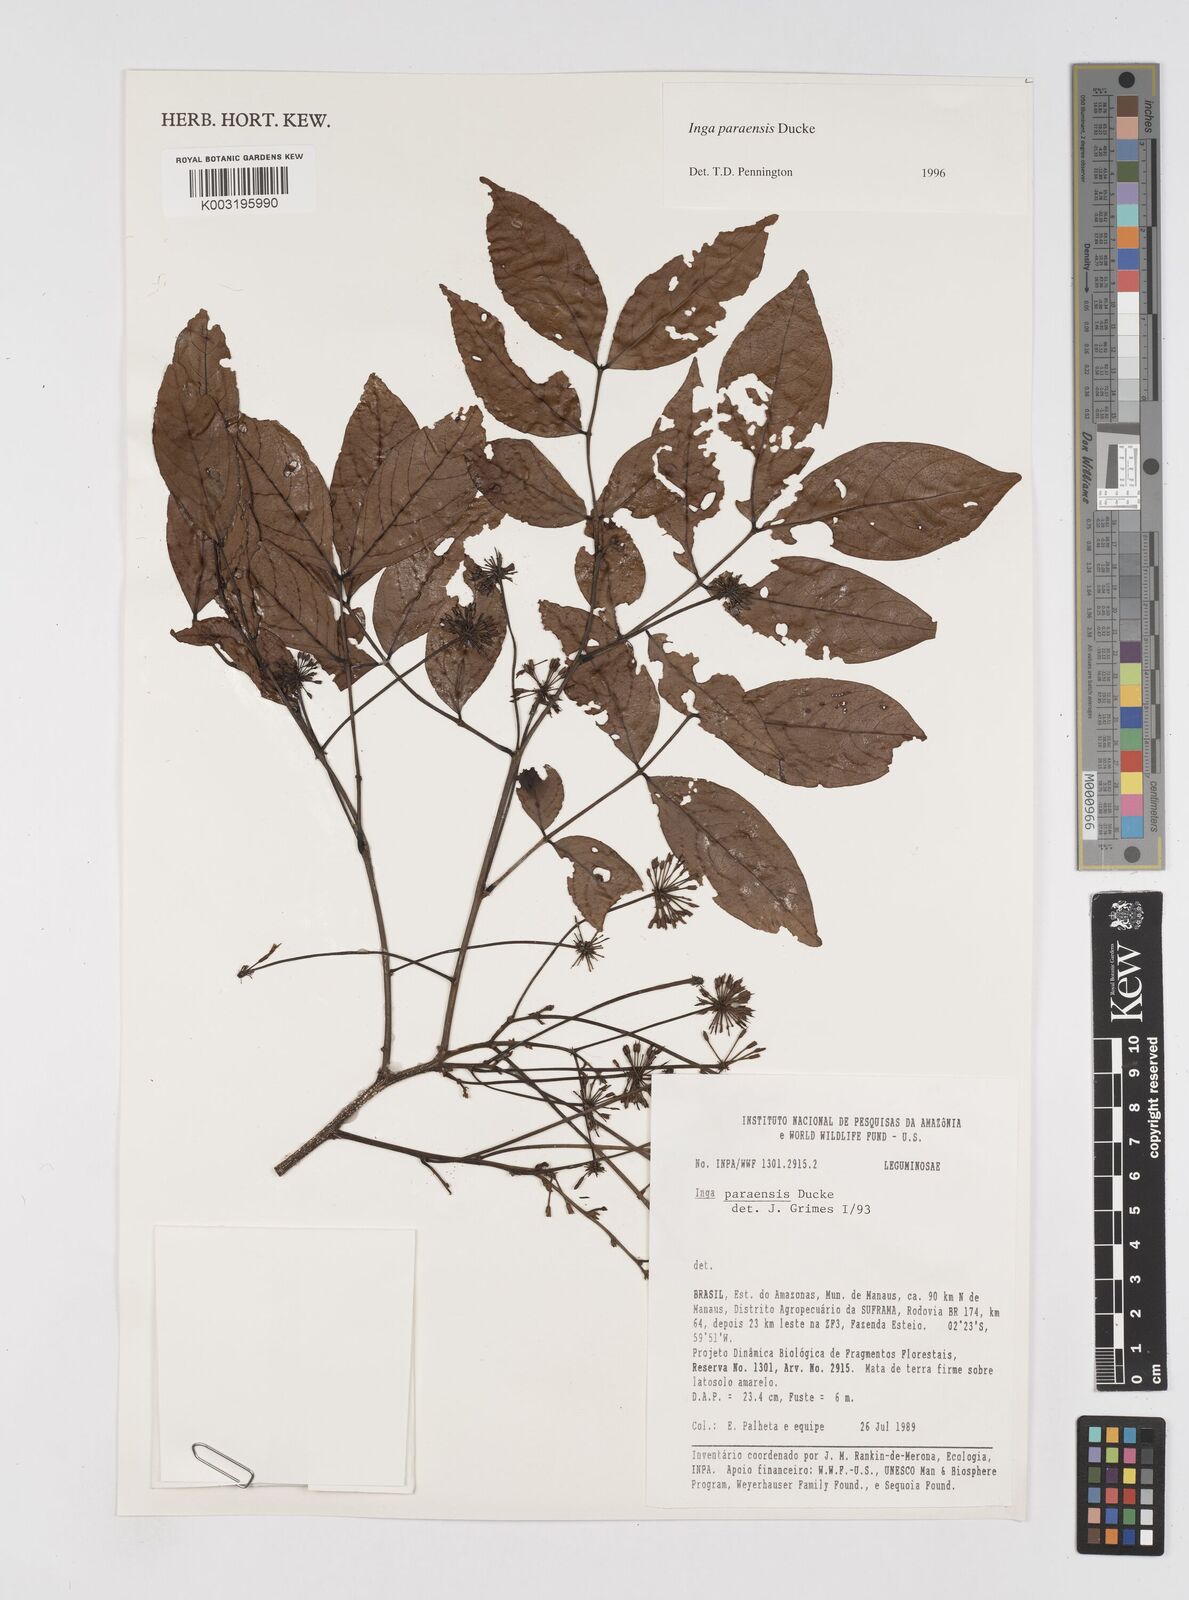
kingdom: Plantae
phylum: Tracheophyta
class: Magnoliopsida
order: Fabales
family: Fabaceae
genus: Inga
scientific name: Inga paraensis
